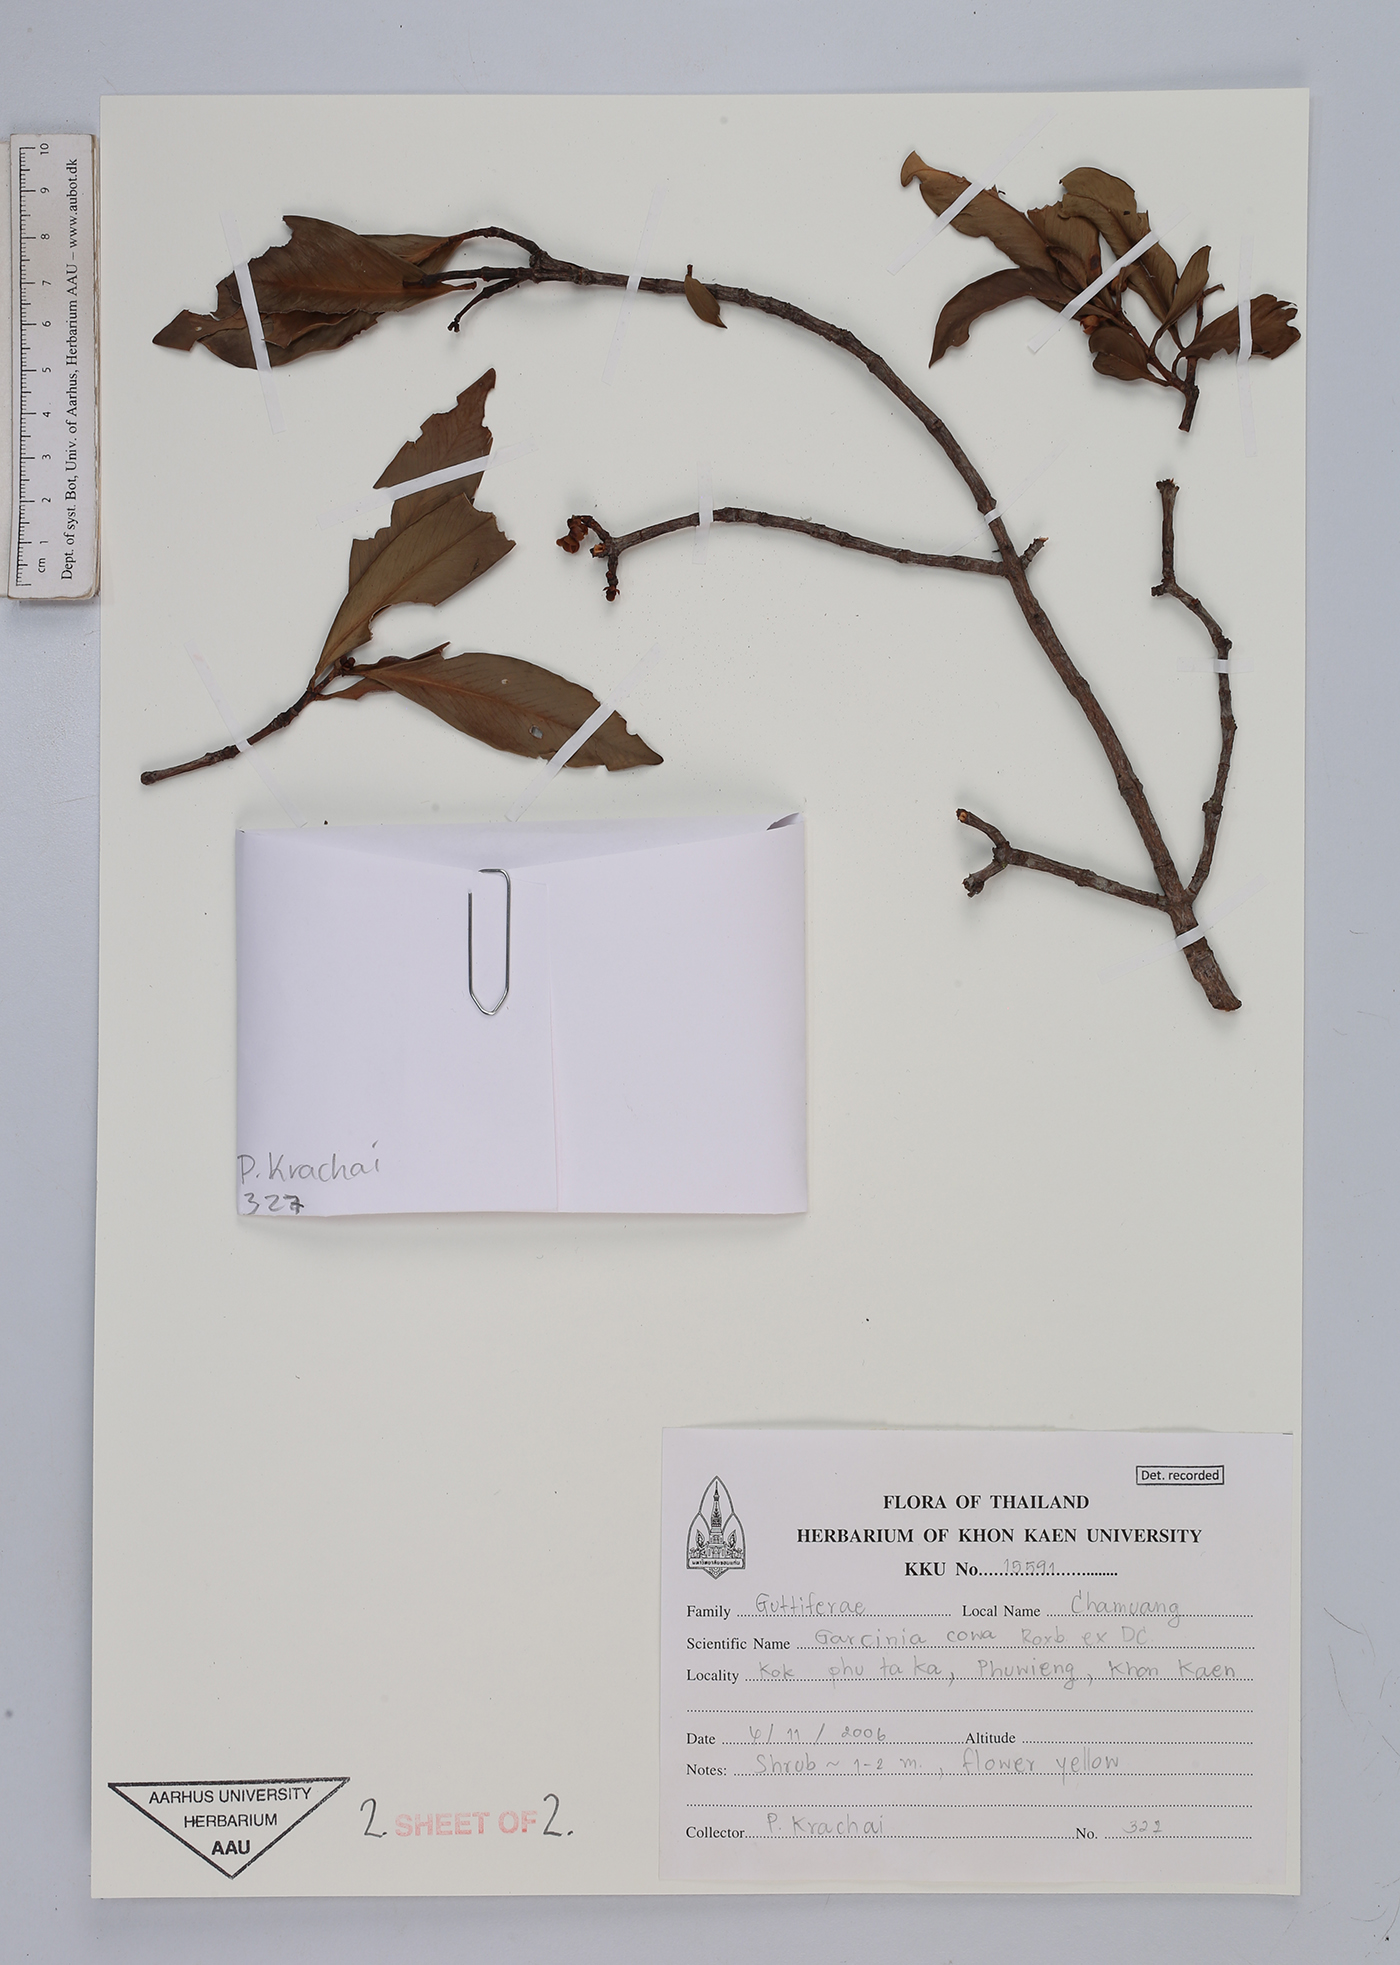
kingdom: Plantae
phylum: Tracheophyta
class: Magnoliopsida
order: Malpighiales
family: Clusiaceae
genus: Garcinia
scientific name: Garcinia cowa
